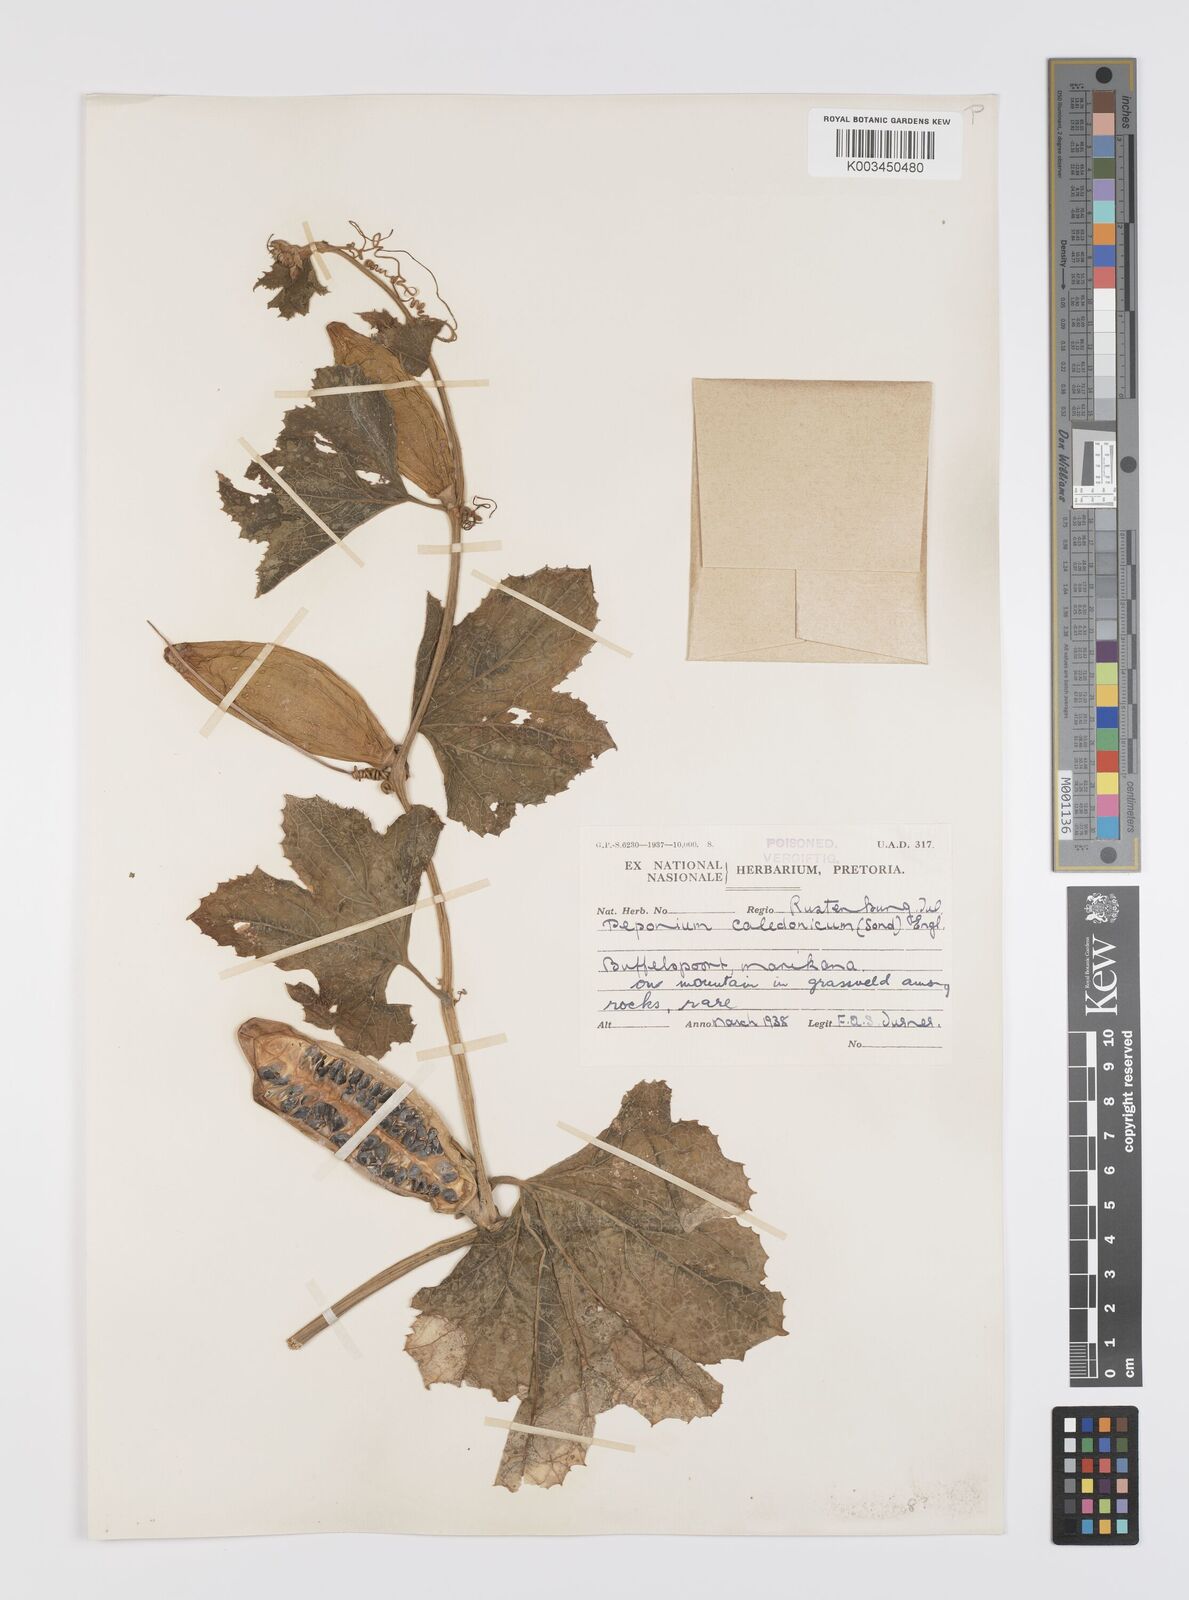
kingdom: Plantae
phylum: Tracheophyta
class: Magnoliopsida
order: Cucurbitales
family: Cucurbitaceae
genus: Peponium
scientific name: Peponium caledonicum
